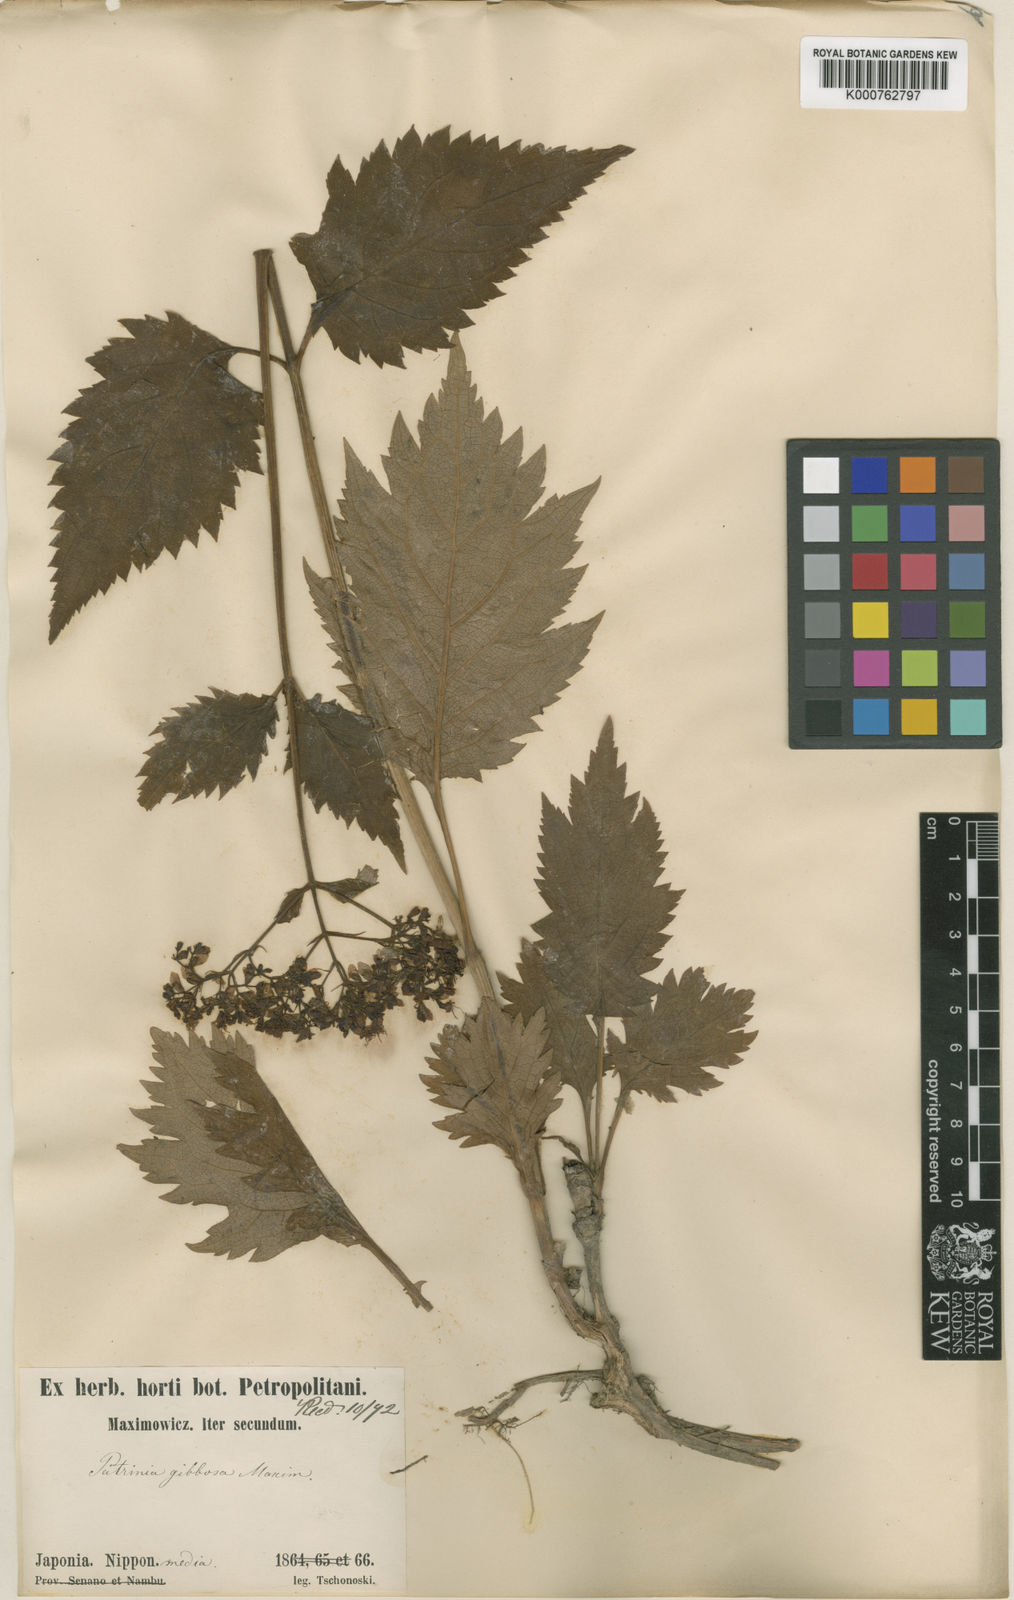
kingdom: Plantae
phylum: Tracheophyta
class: Magnoliopsida
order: Dipsacales
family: Caprifoliaceae
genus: Patrinia
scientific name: Patrinia gibbosa
